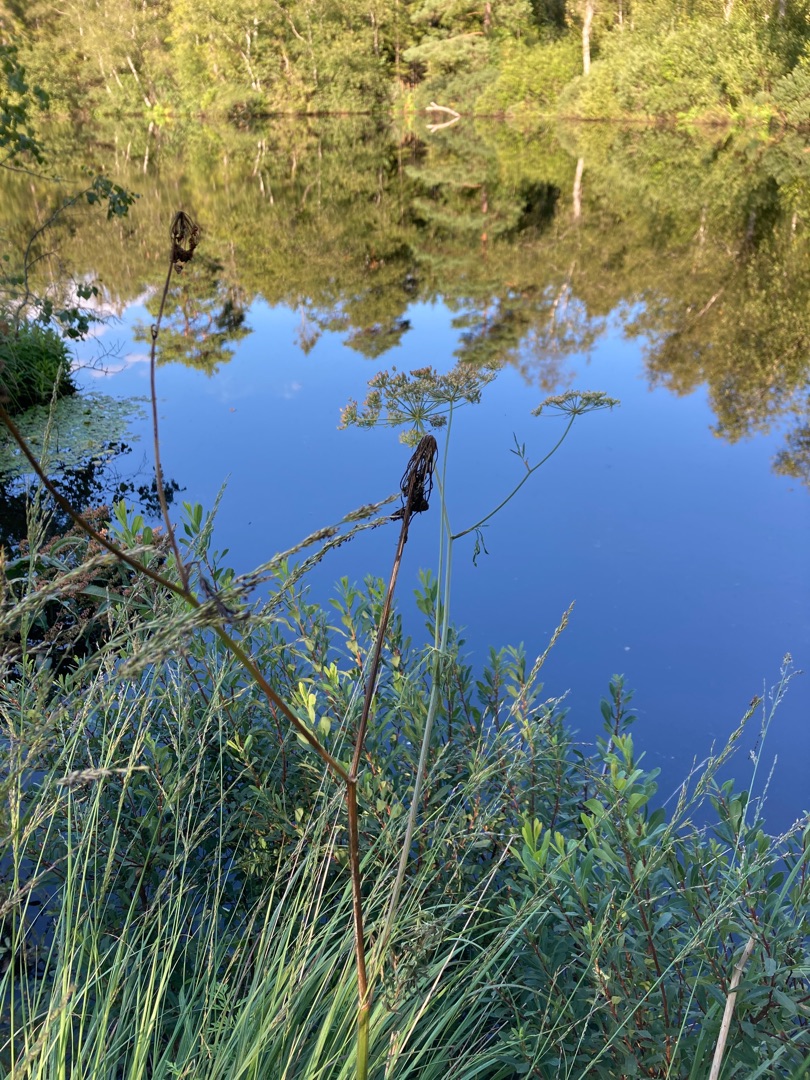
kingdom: Plantae
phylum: Tracheophyta
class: Magnoliopsida
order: Apiales
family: Apiaceae
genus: Thysselinum
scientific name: Thysselinum palustre
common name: Kær-svovlrod
